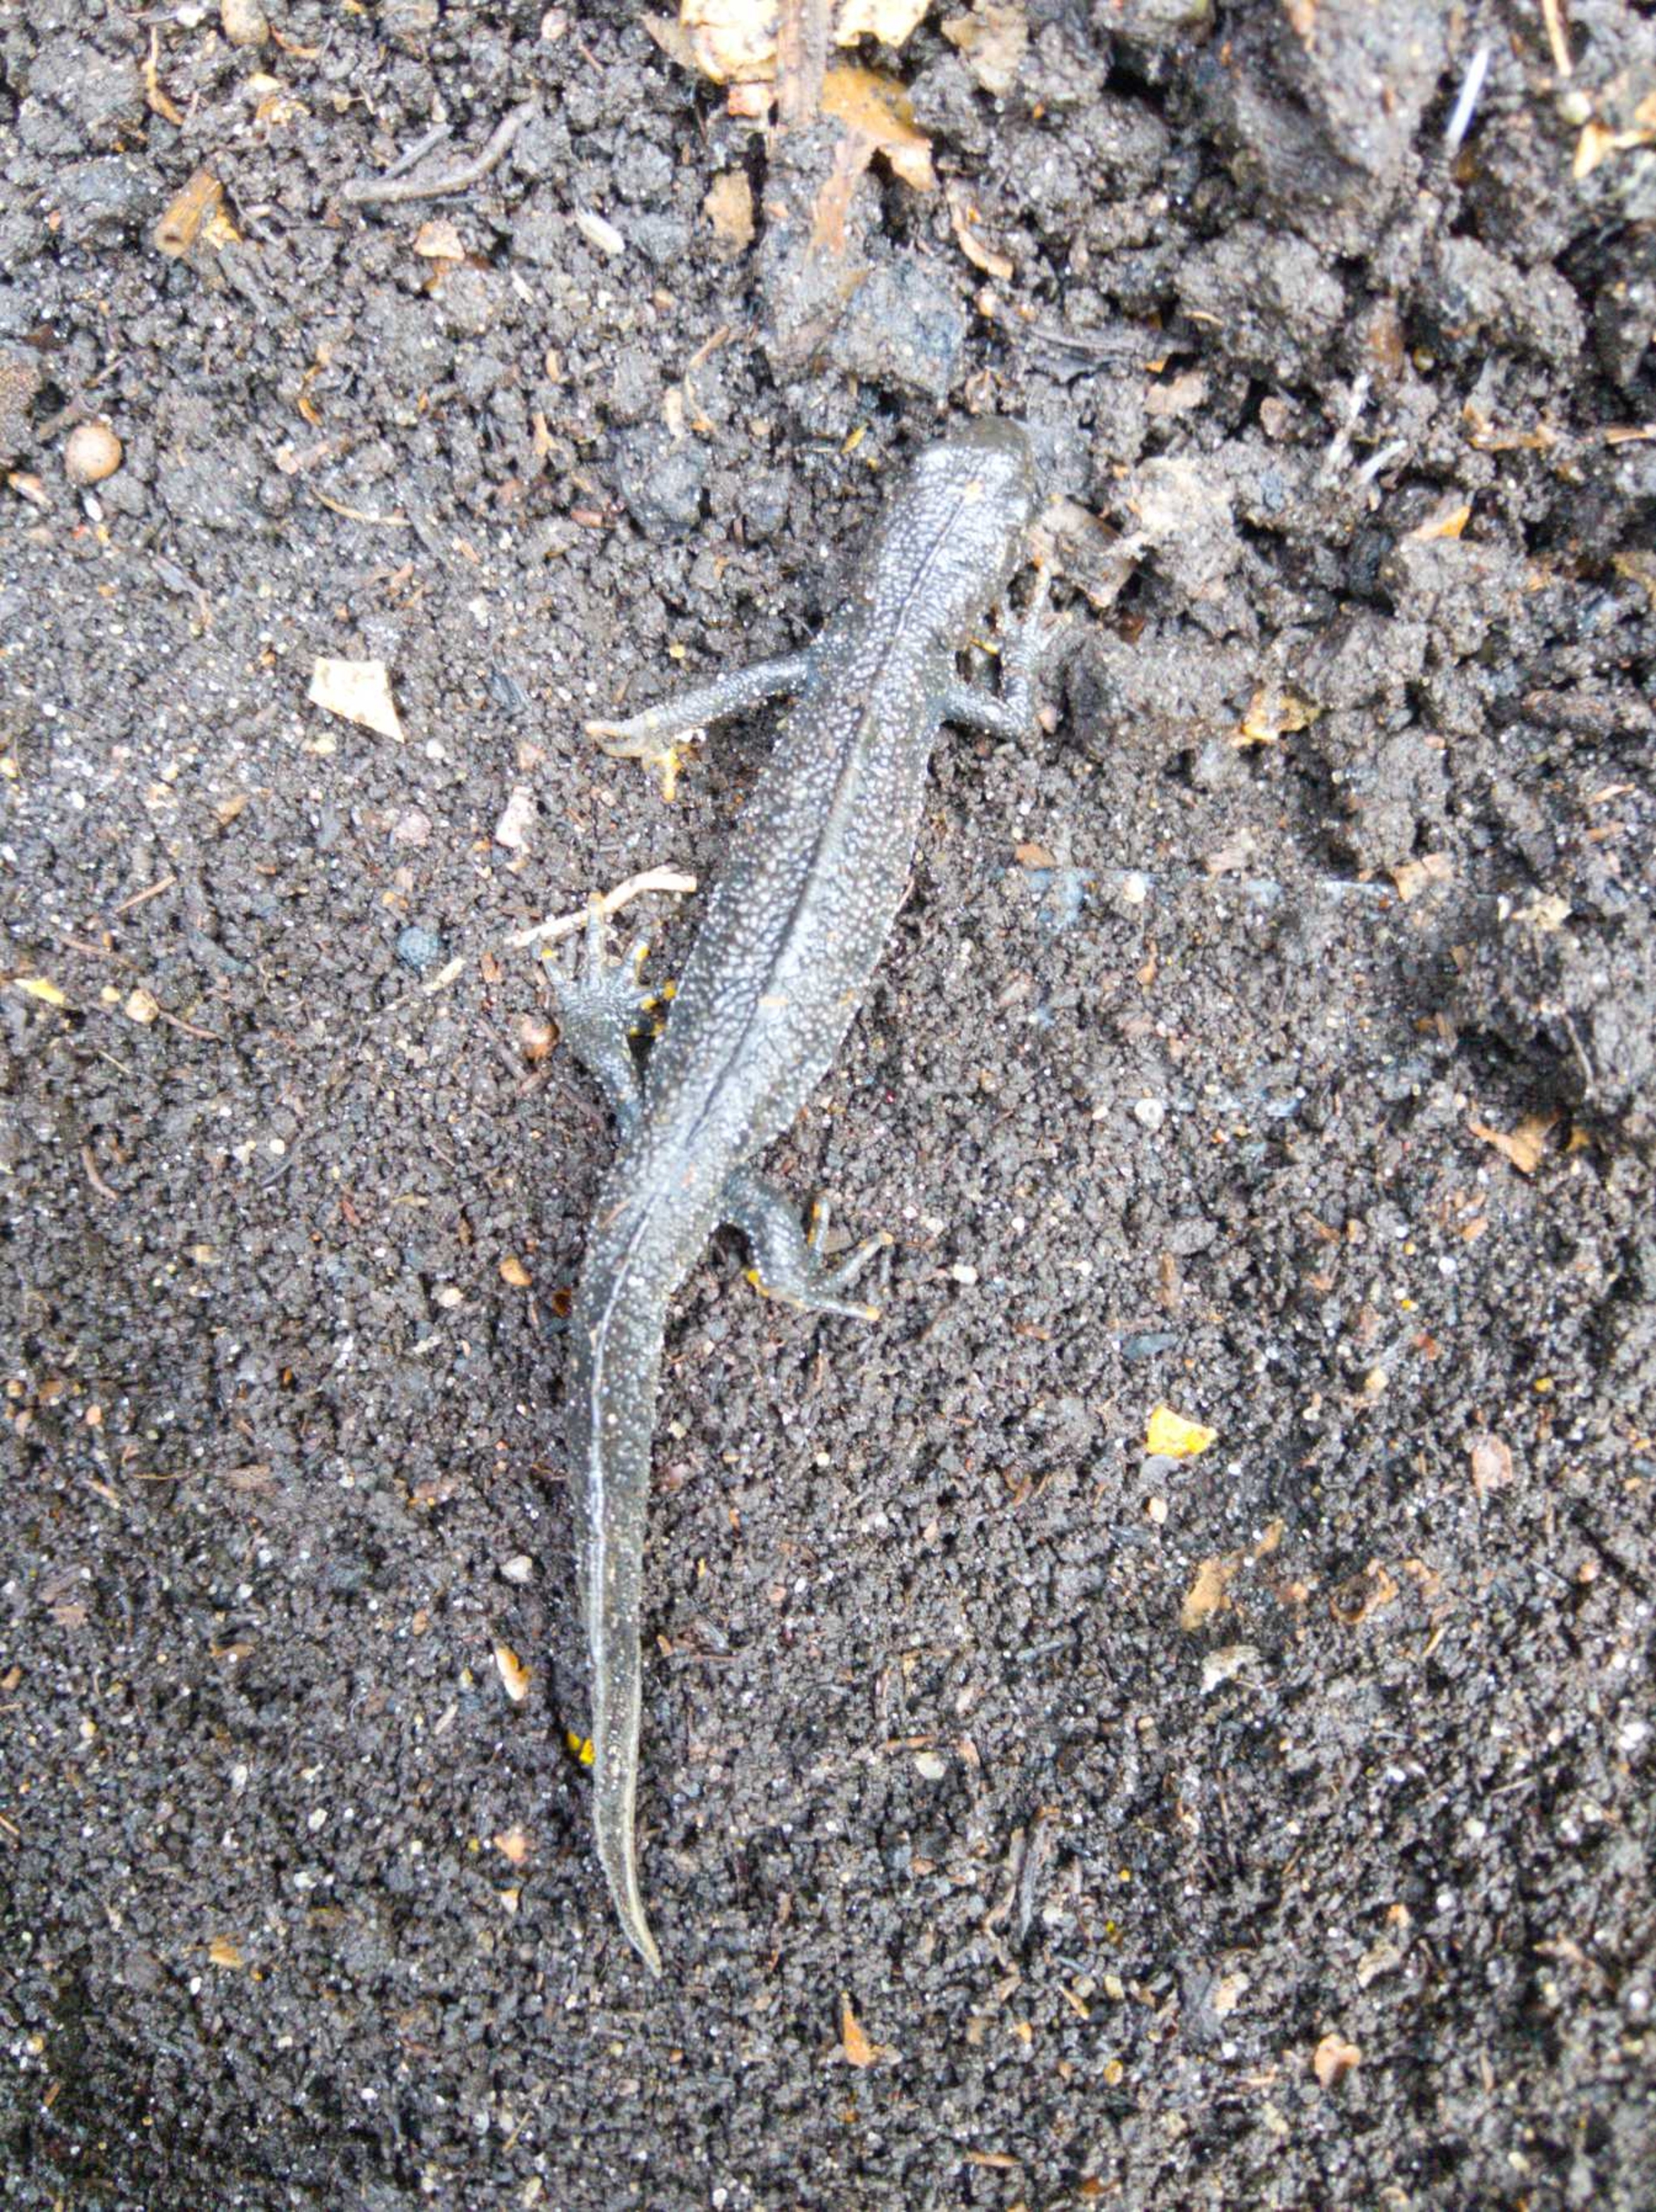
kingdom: Animalia
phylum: Chordata
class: Amphibia
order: Caudata
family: Salamandridae
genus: Triturus
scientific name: Triturus cristatus
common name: Stor vandsalamander
